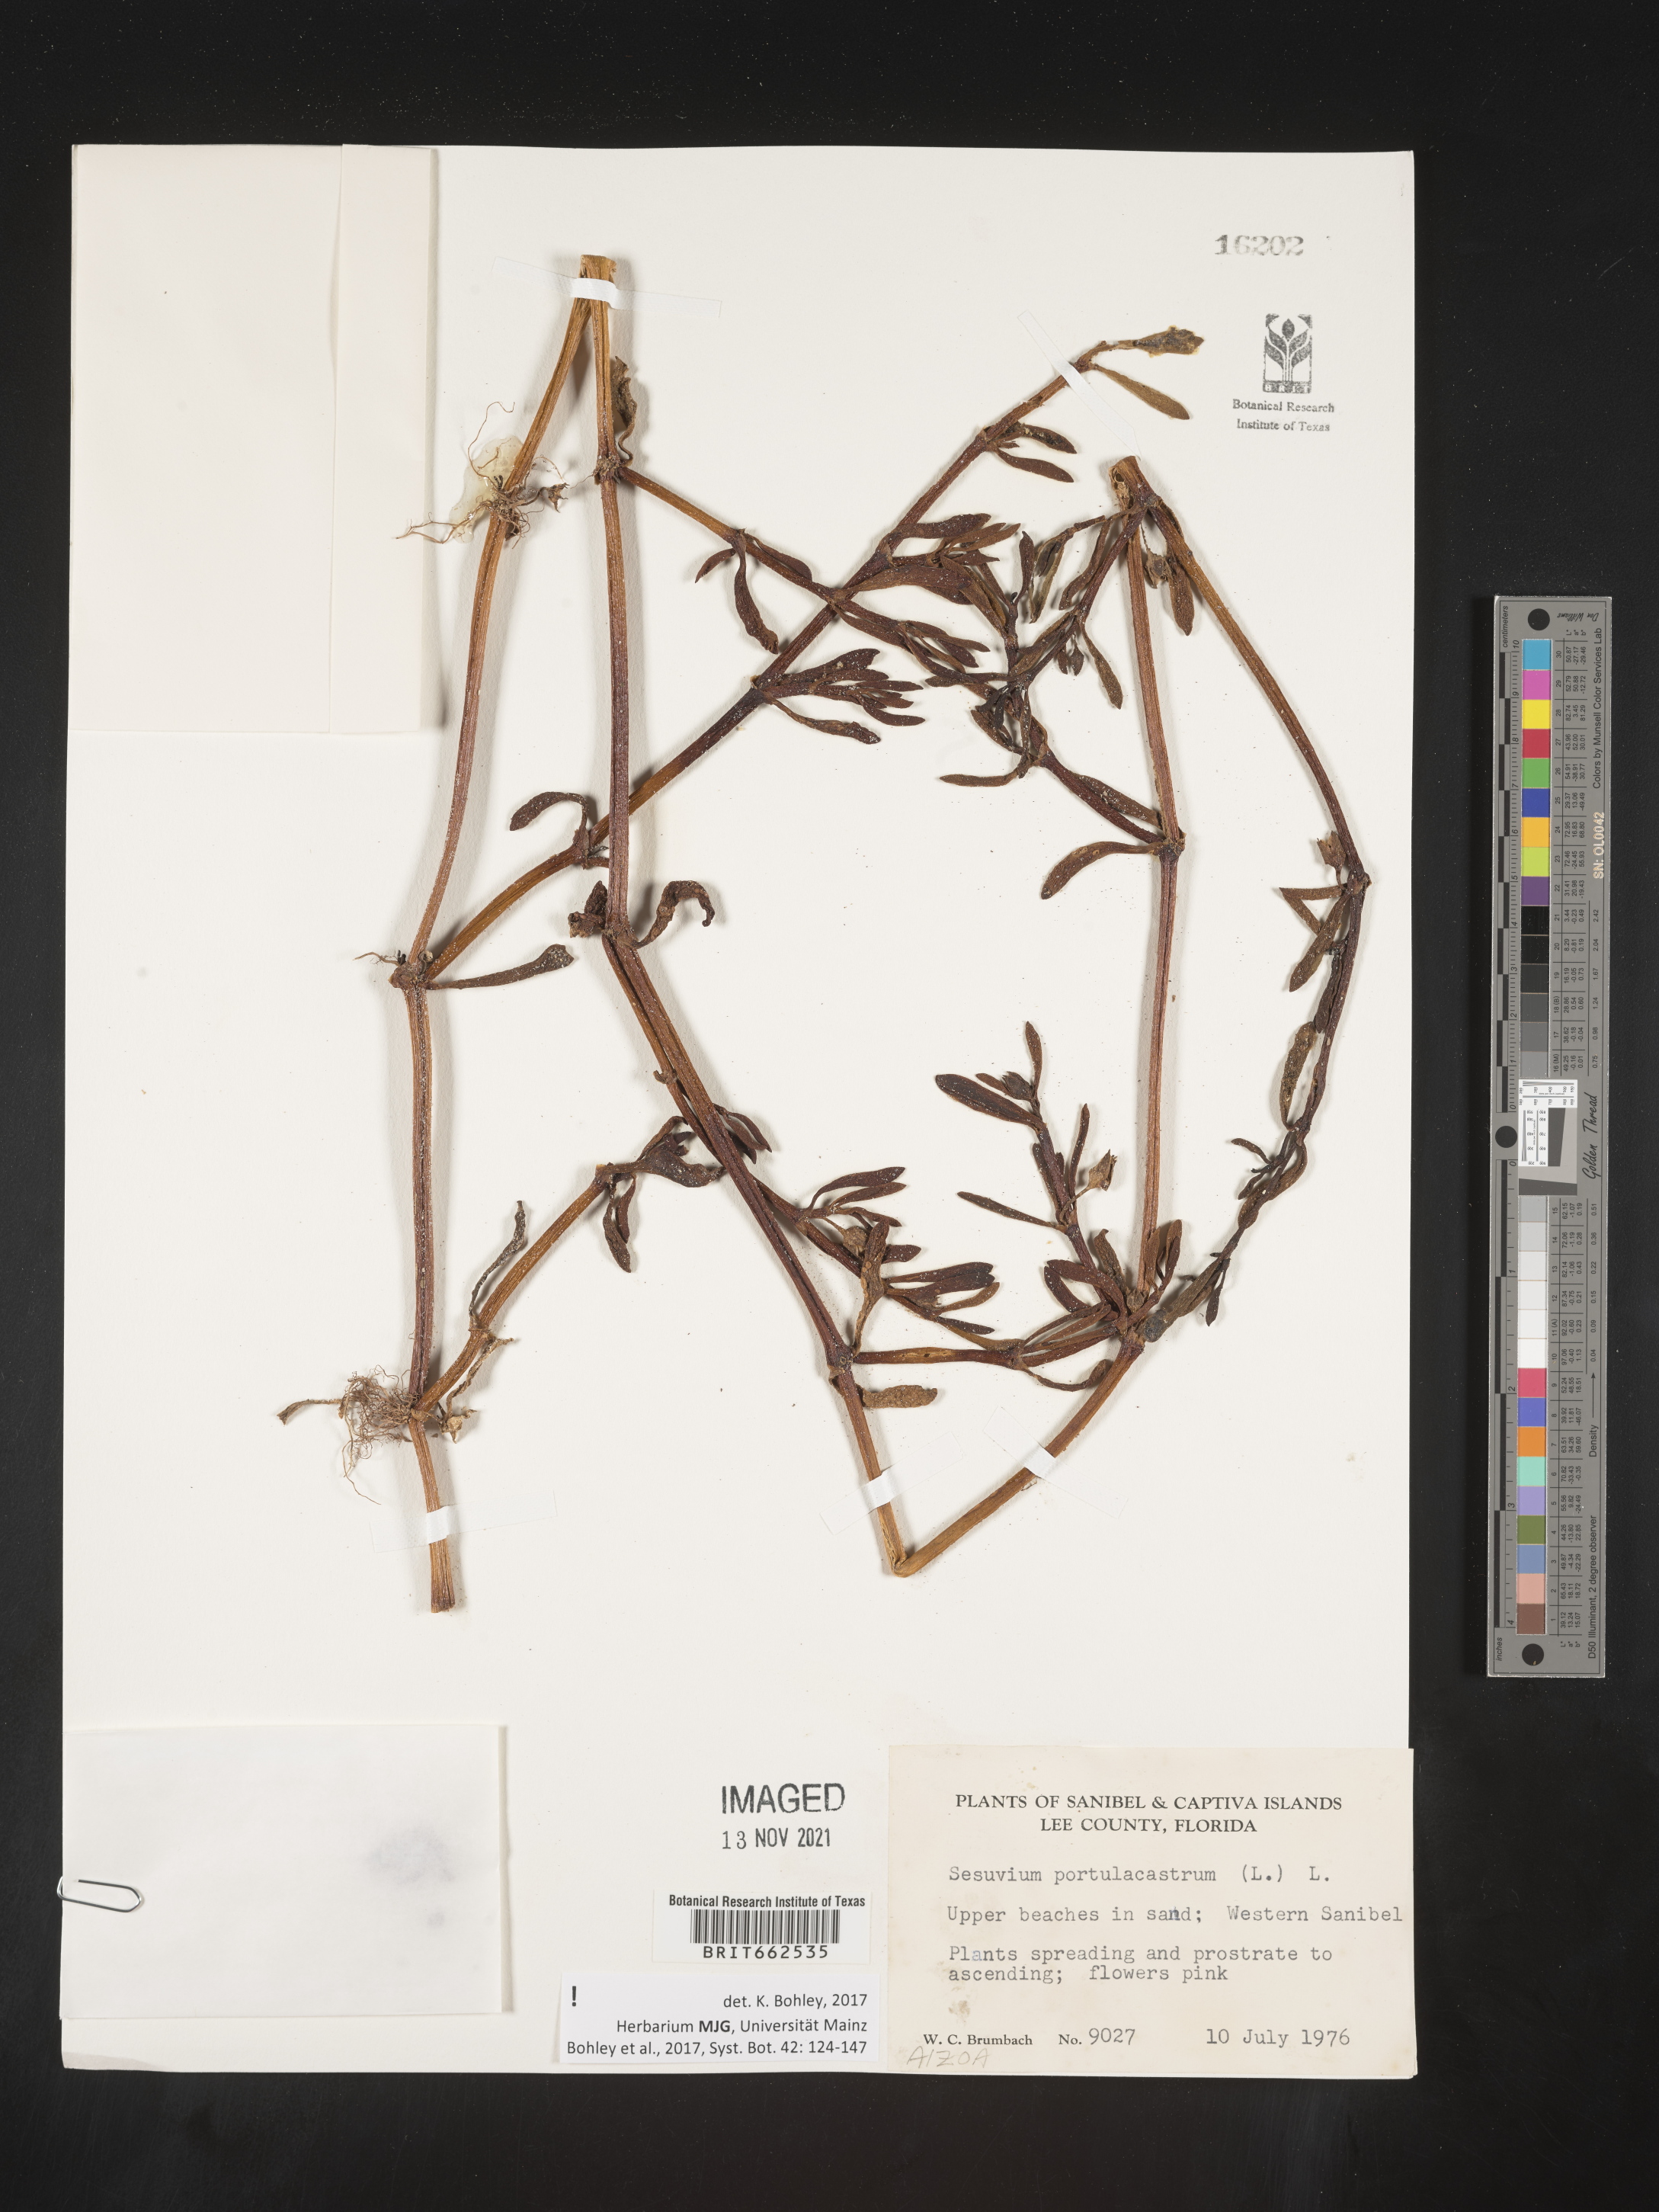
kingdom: Plantae
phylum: Tracheophyta
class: Magnoliopsida
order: Caryophyllales
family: Aizoaceae
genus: Sesuvium
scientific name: Sesuvium portulacastrum
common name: Sea-purslane
